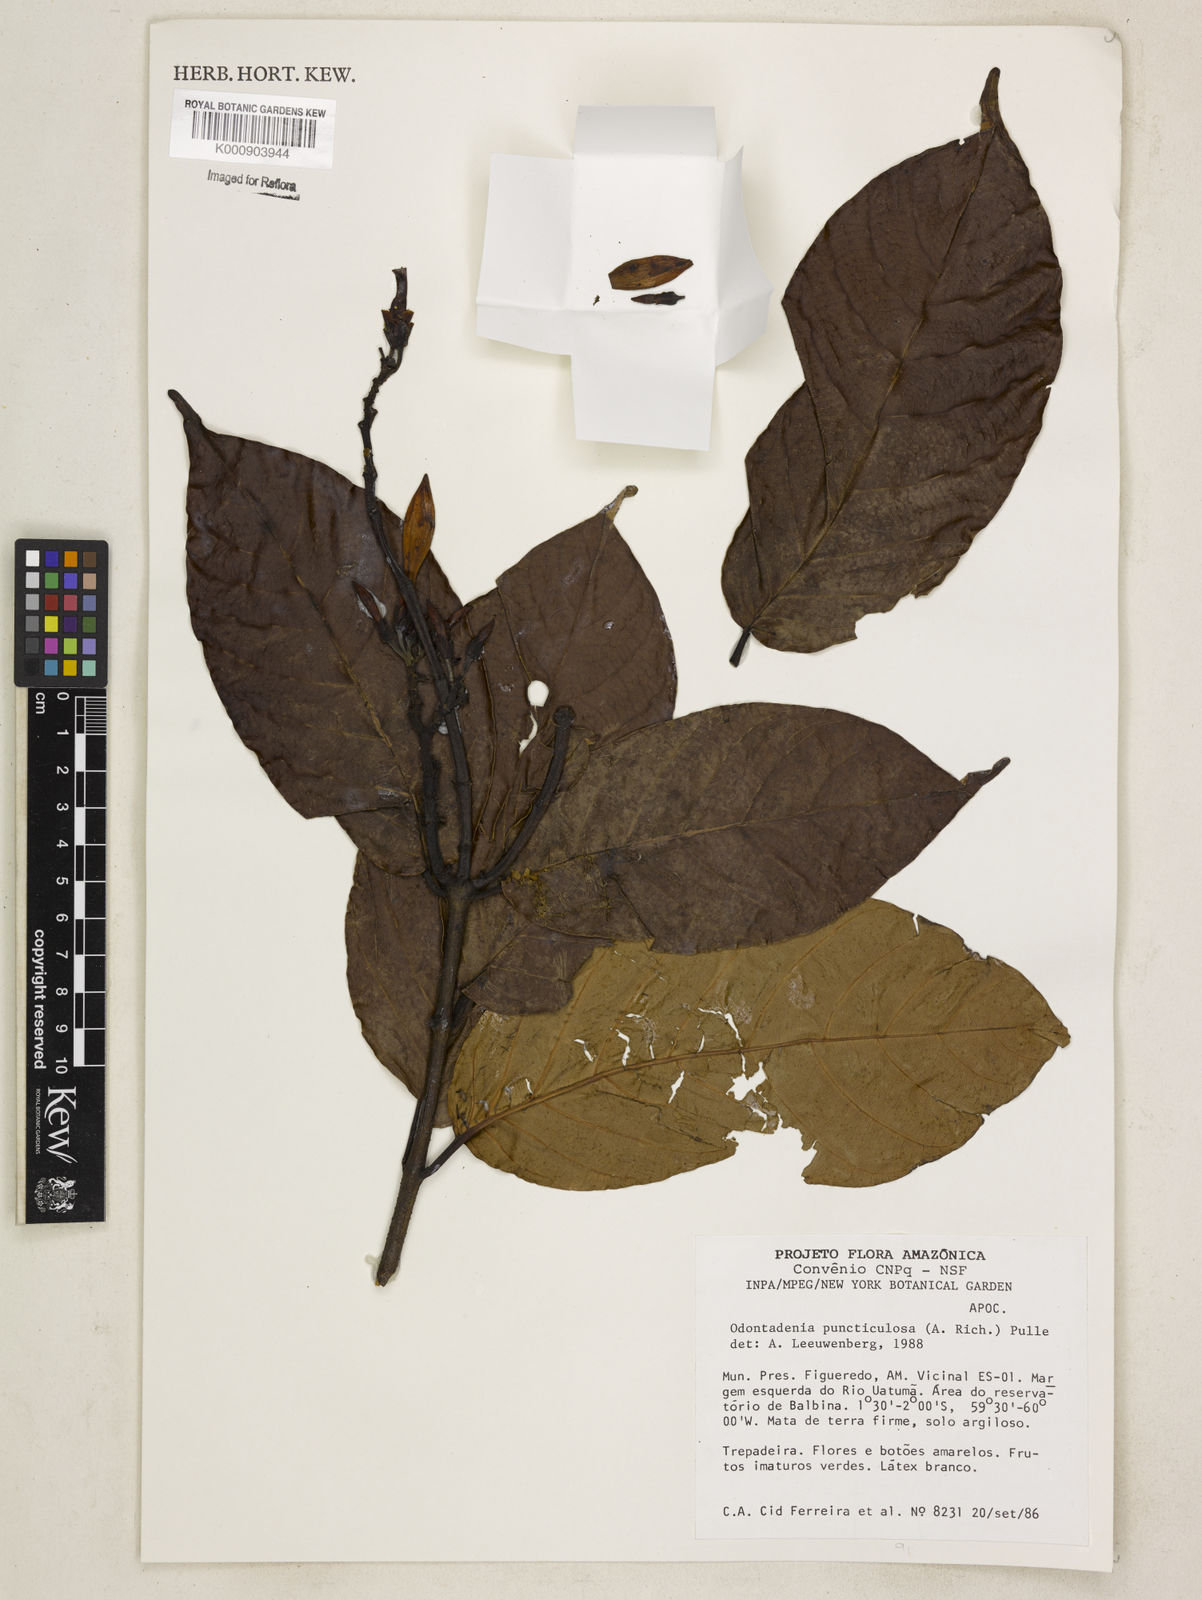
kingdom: Plantae
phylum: Tracheophyta
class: Magnoliopsida
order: Gentianales
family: Apocynaceae
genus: Odontadenia
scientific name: Odontadenia puncticulosa
